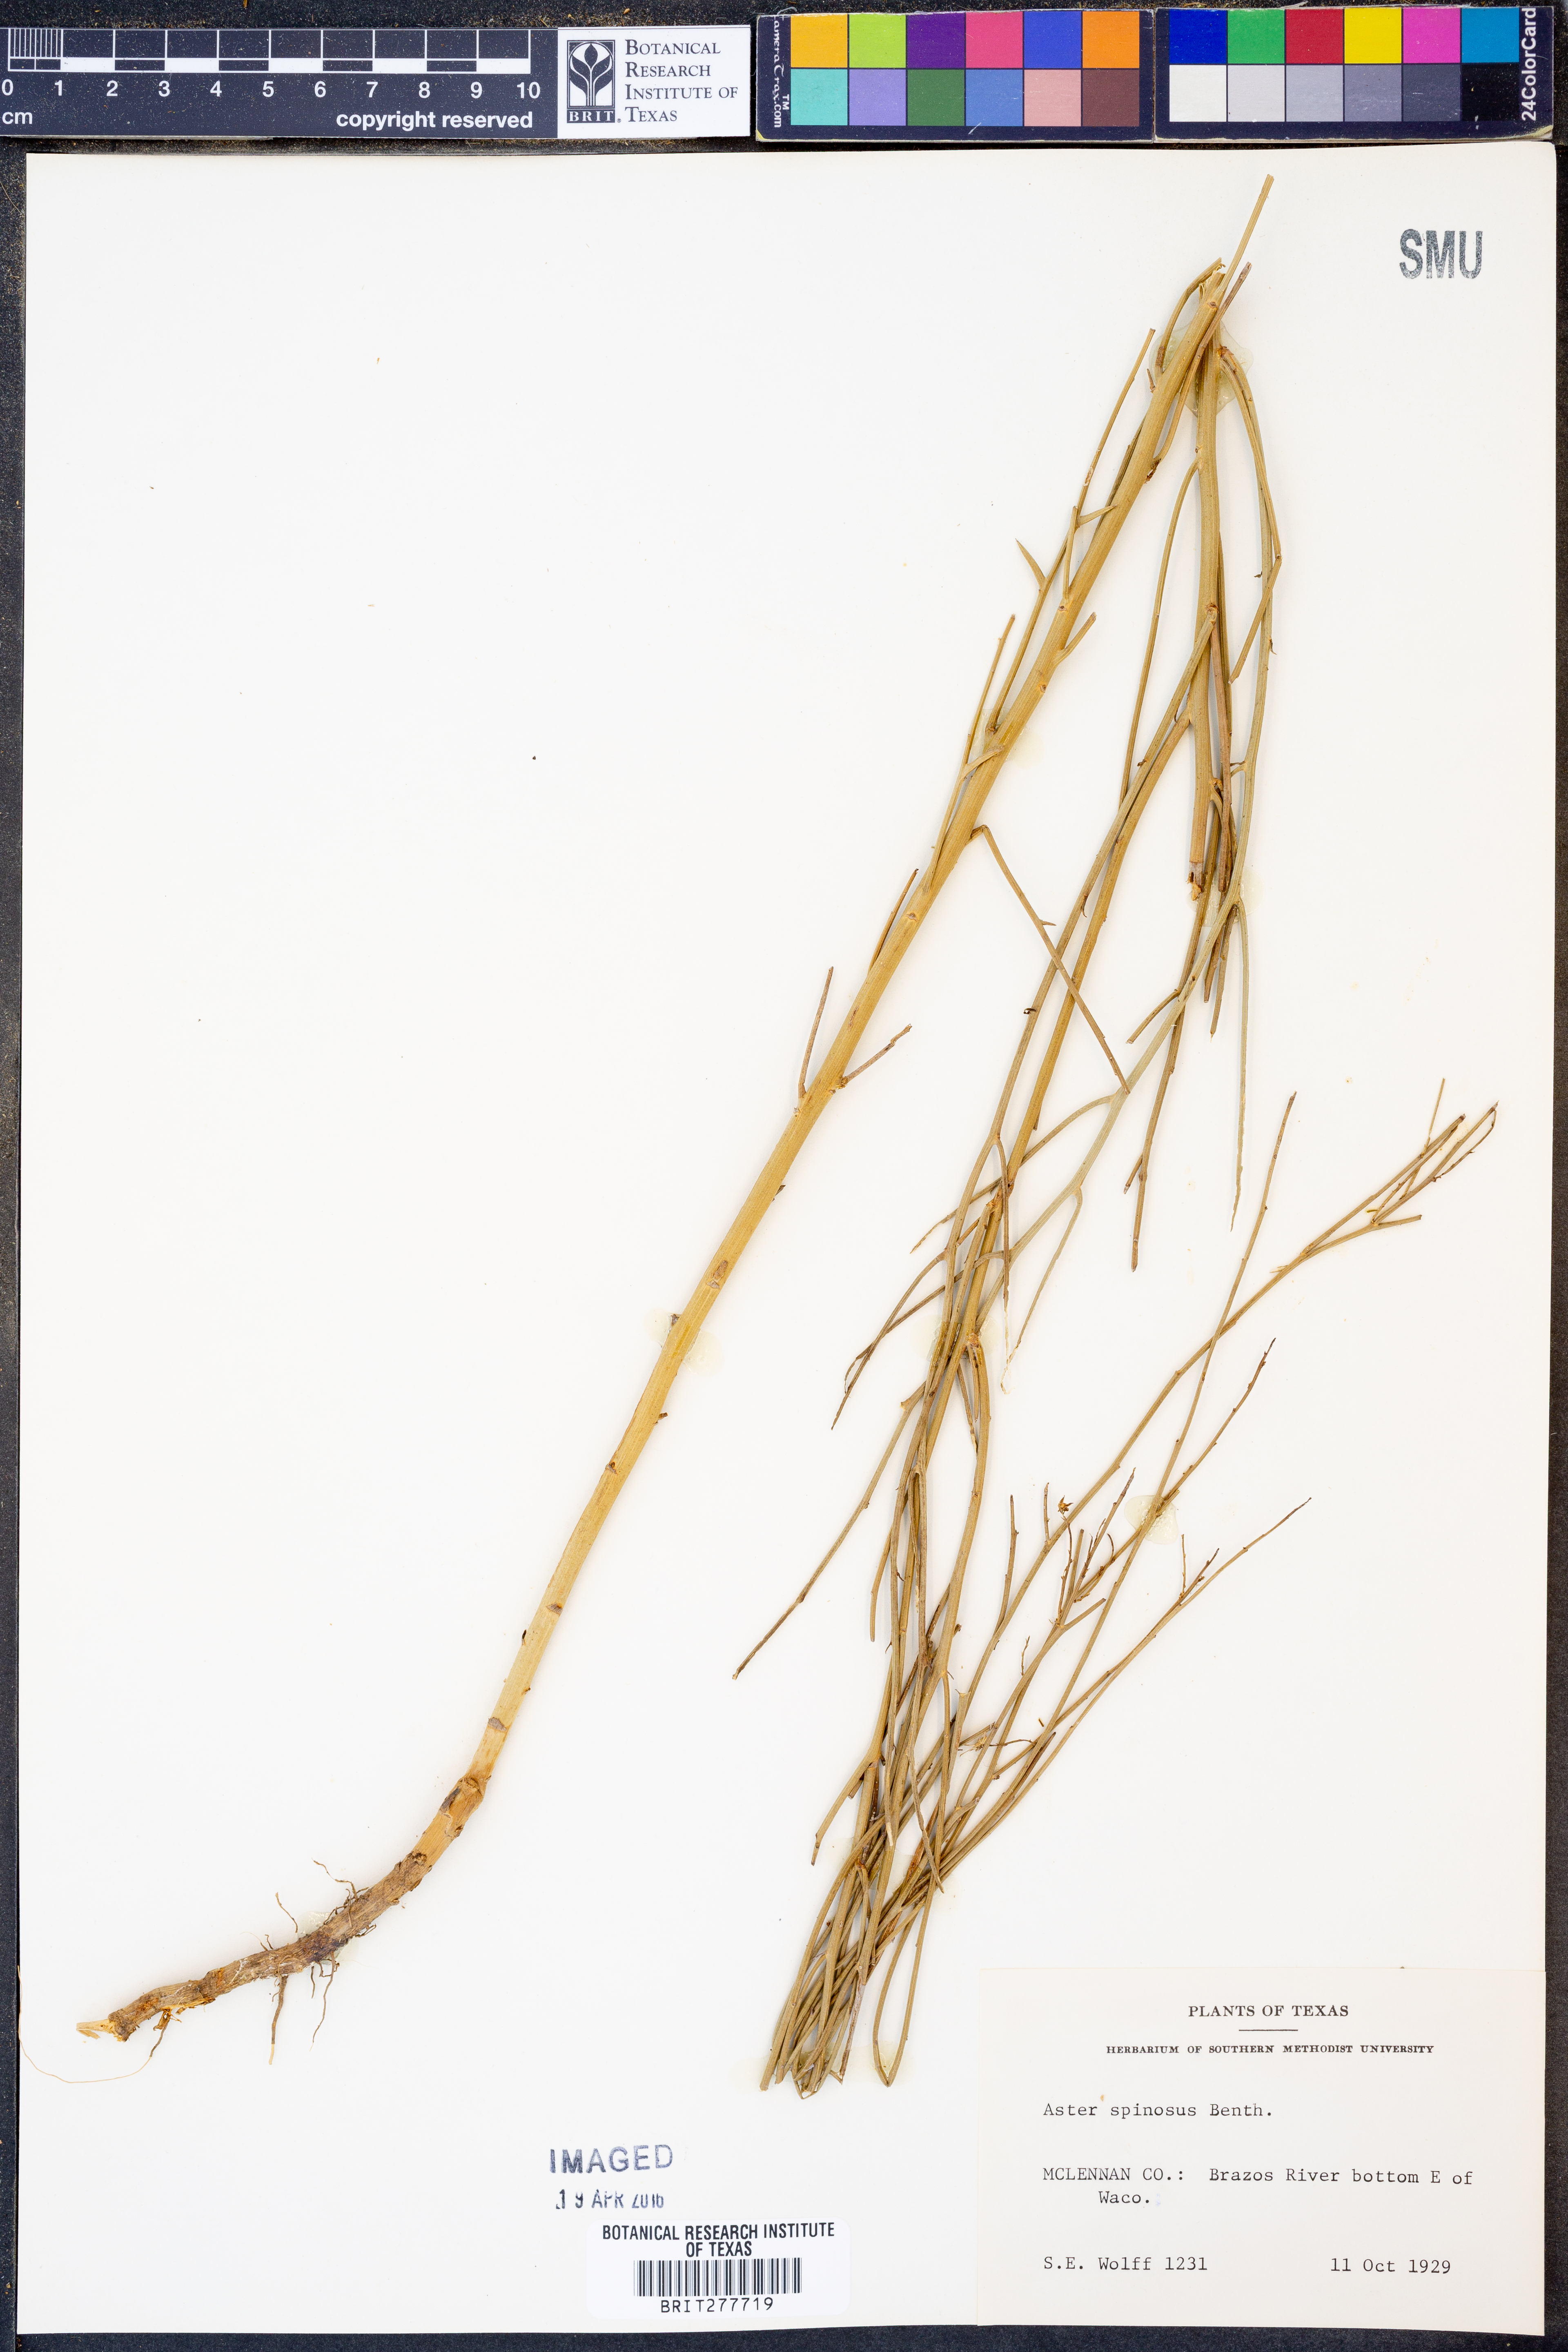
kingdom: Plantae
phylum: Tracheophyta
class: Magnoliopsida
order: Asterales
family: Asteraceae
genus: Chloracantha
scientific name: Chloracantha spinosa
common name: Mexican devilweed
